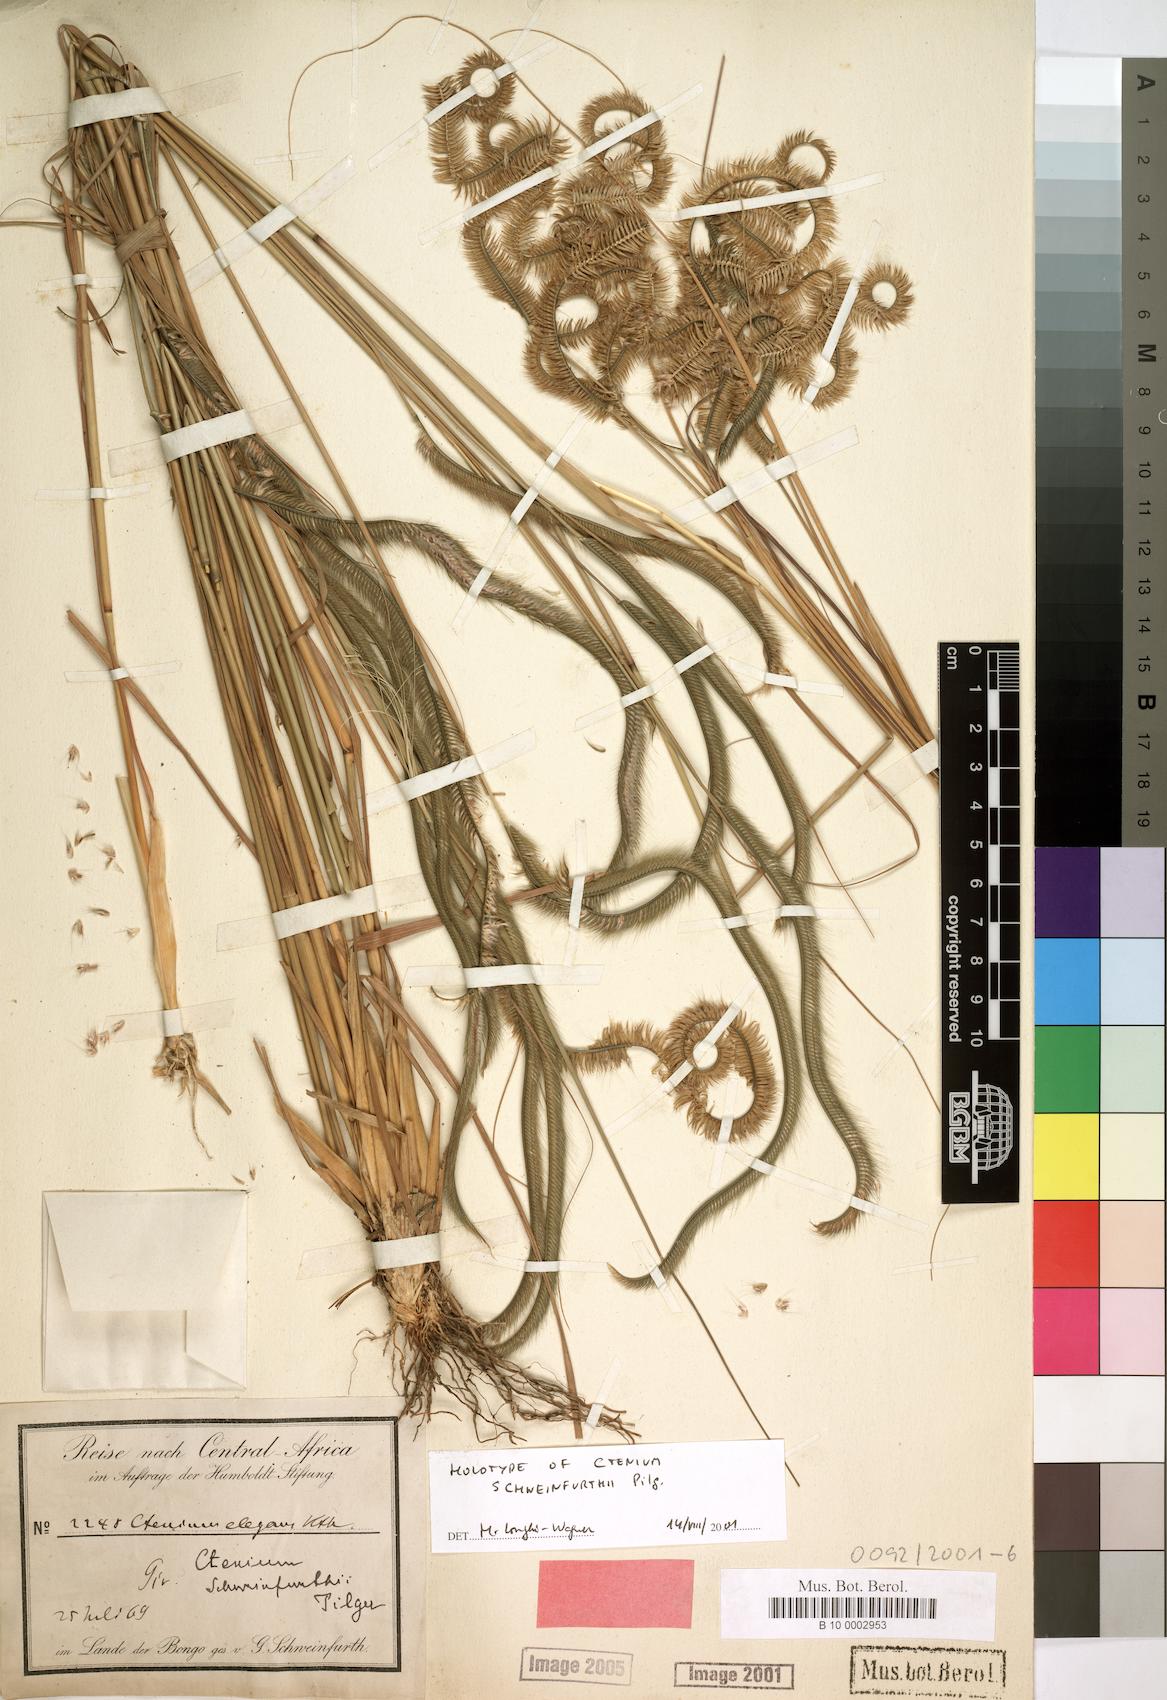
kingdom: Plantae
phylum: Tracheophyta
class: Liliopsida
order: Poales
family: Poaceae
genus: Ctenium
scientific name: Ctenium newtonii
